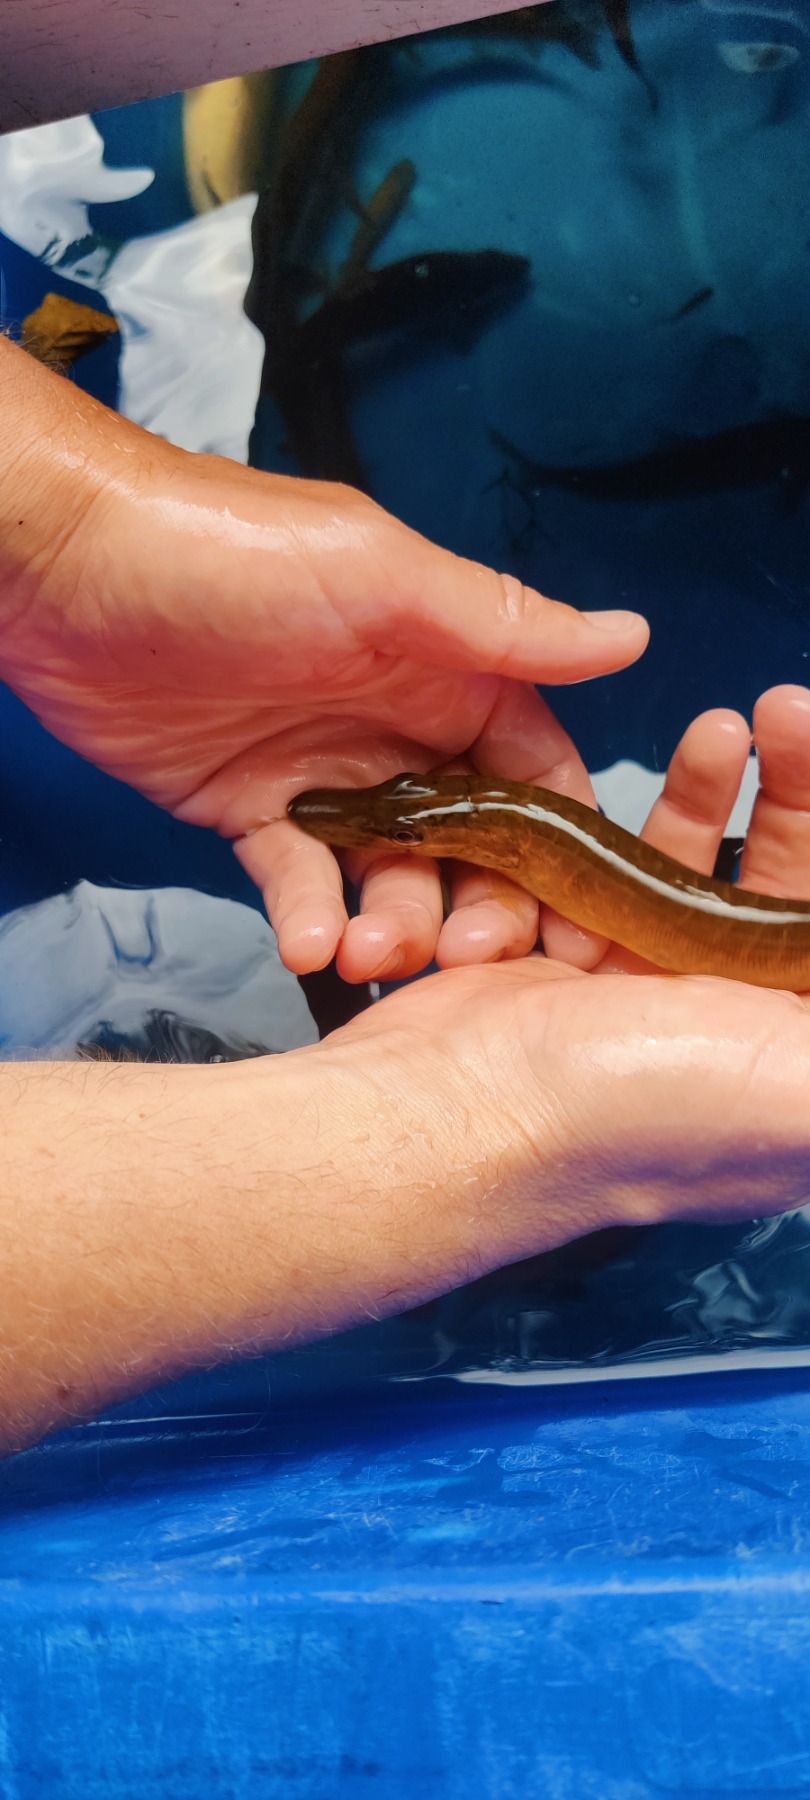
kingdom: Animalia
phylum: Chordata
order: Esociformes
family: Esocidae
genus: Esox
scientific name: Esox lucius
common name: Gedde
